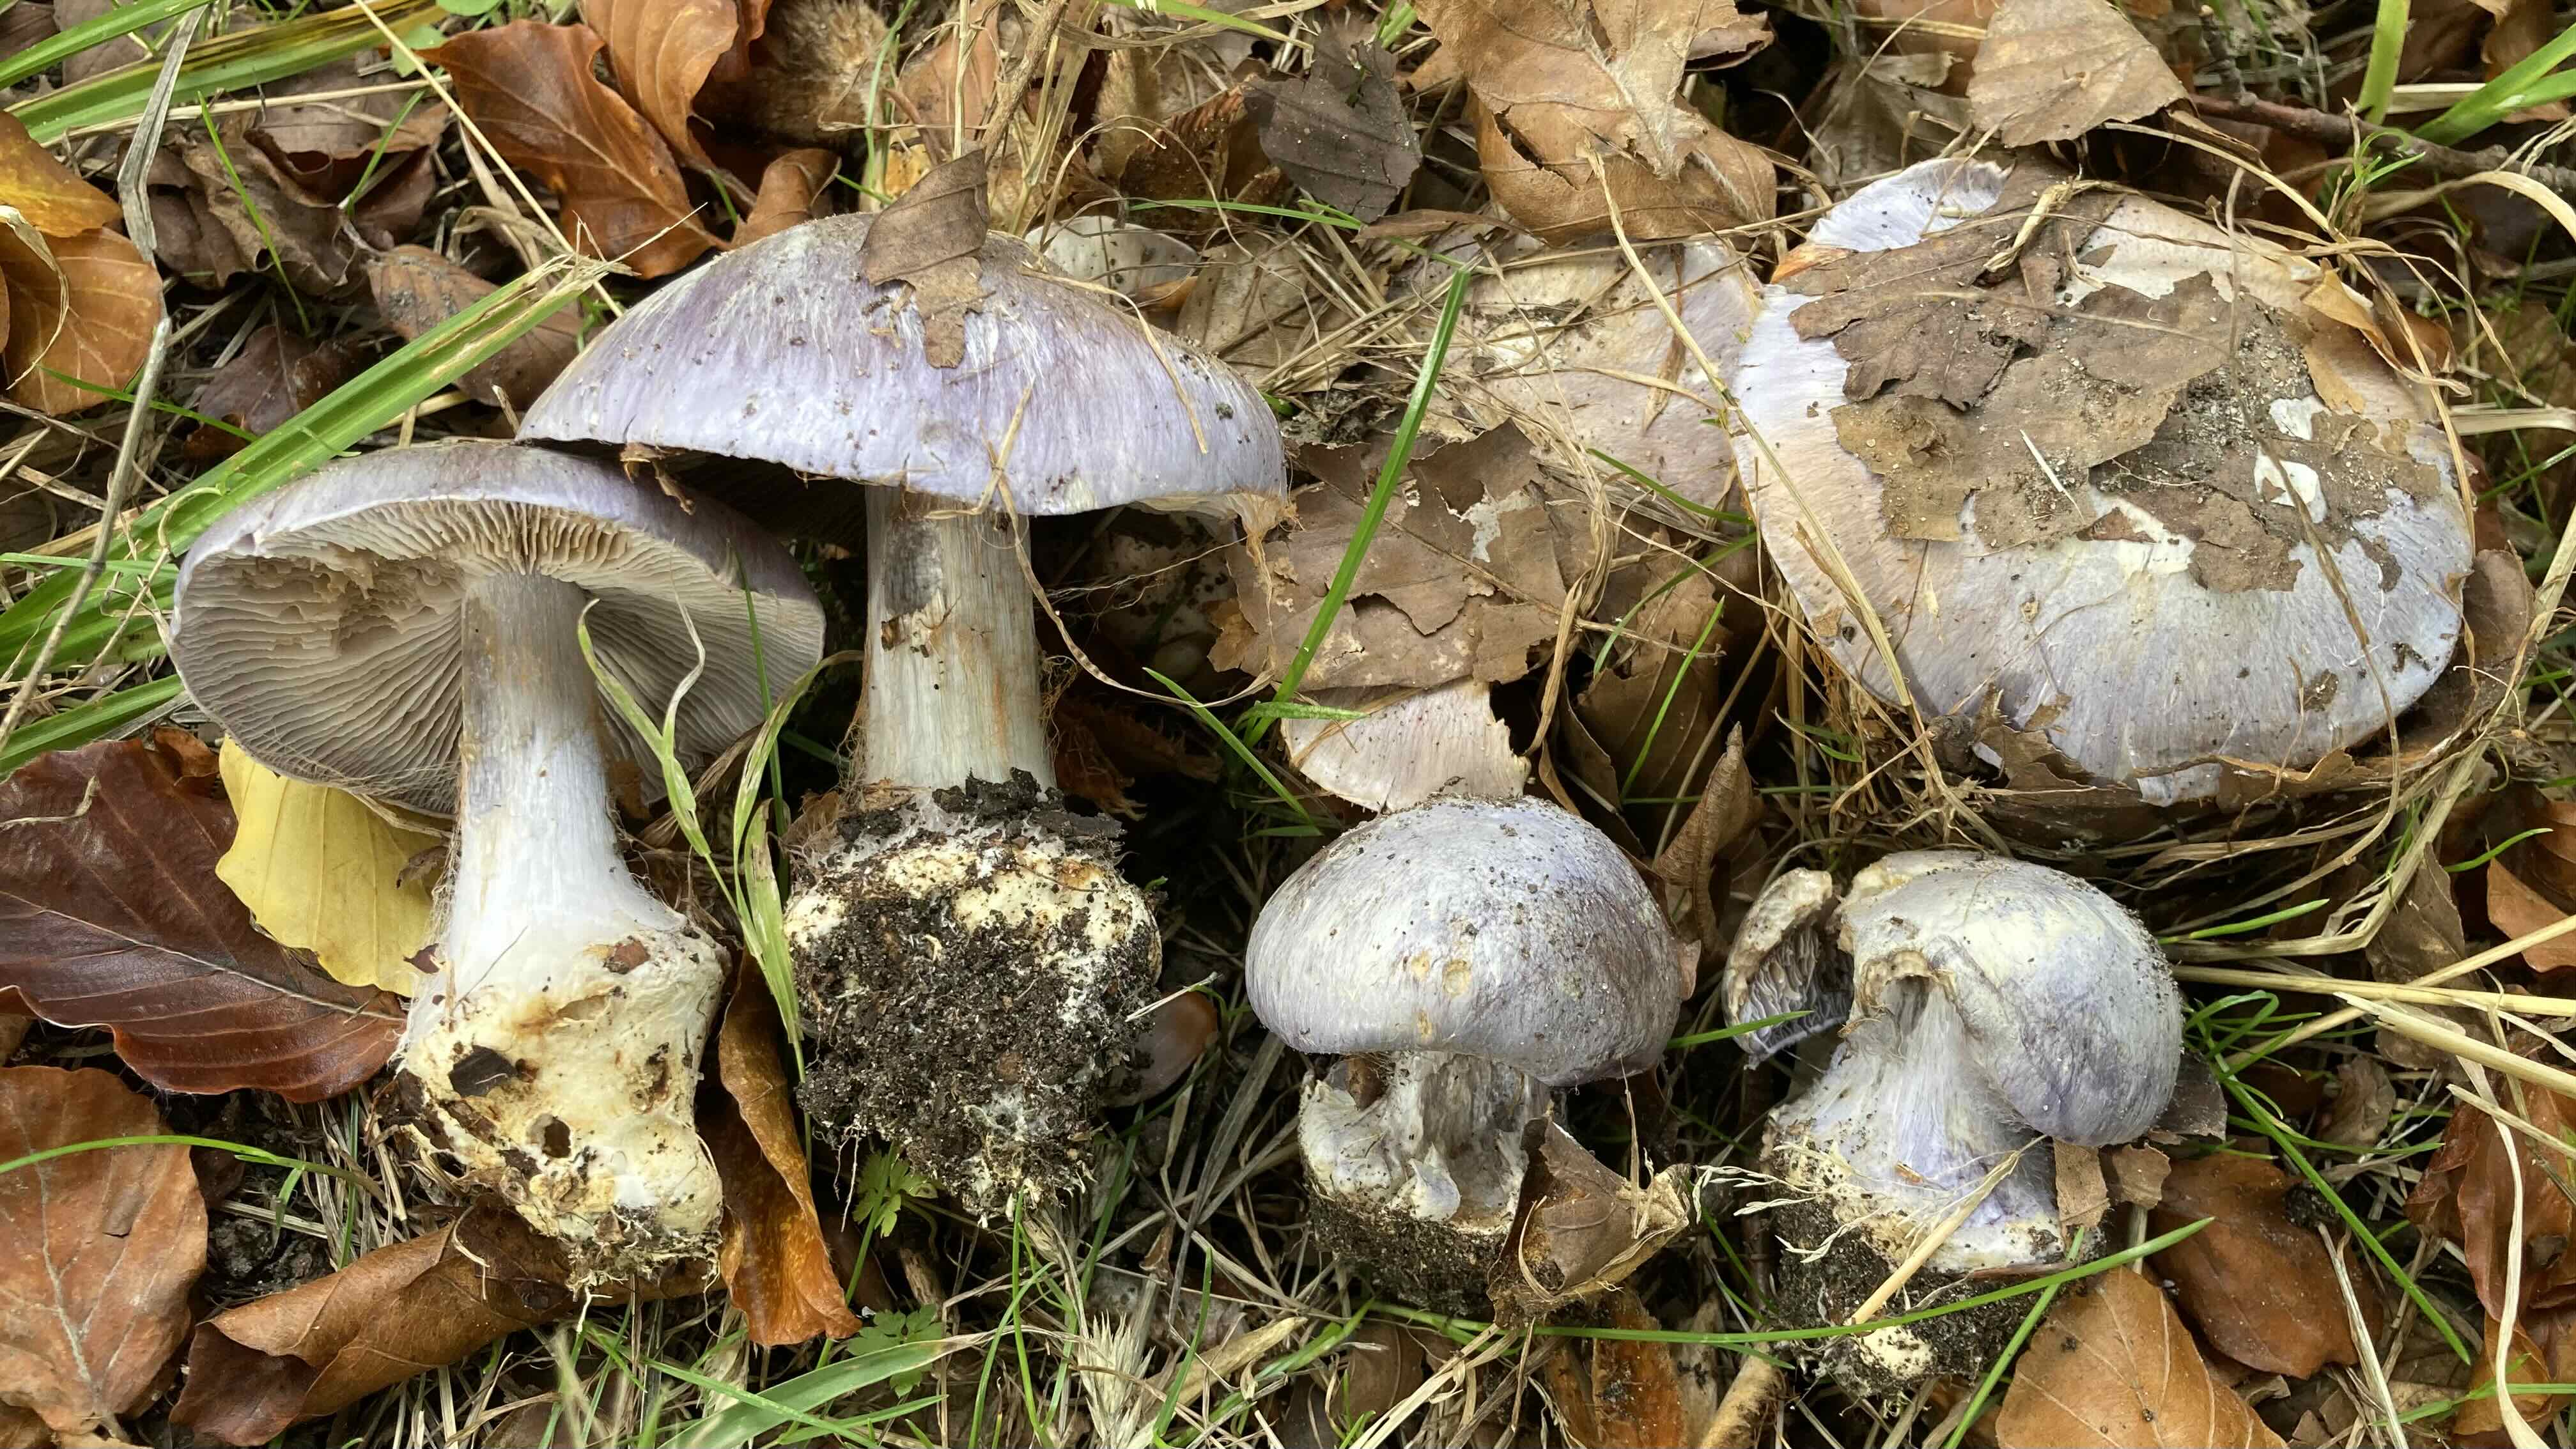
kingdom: Fungi
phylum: Basidiomycota
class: Agaricomycetes
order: Agaricales
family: Cortinariaceae
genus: Cortinarius
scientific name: Cortinarius caerulescens
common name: blåkødet slørhat
